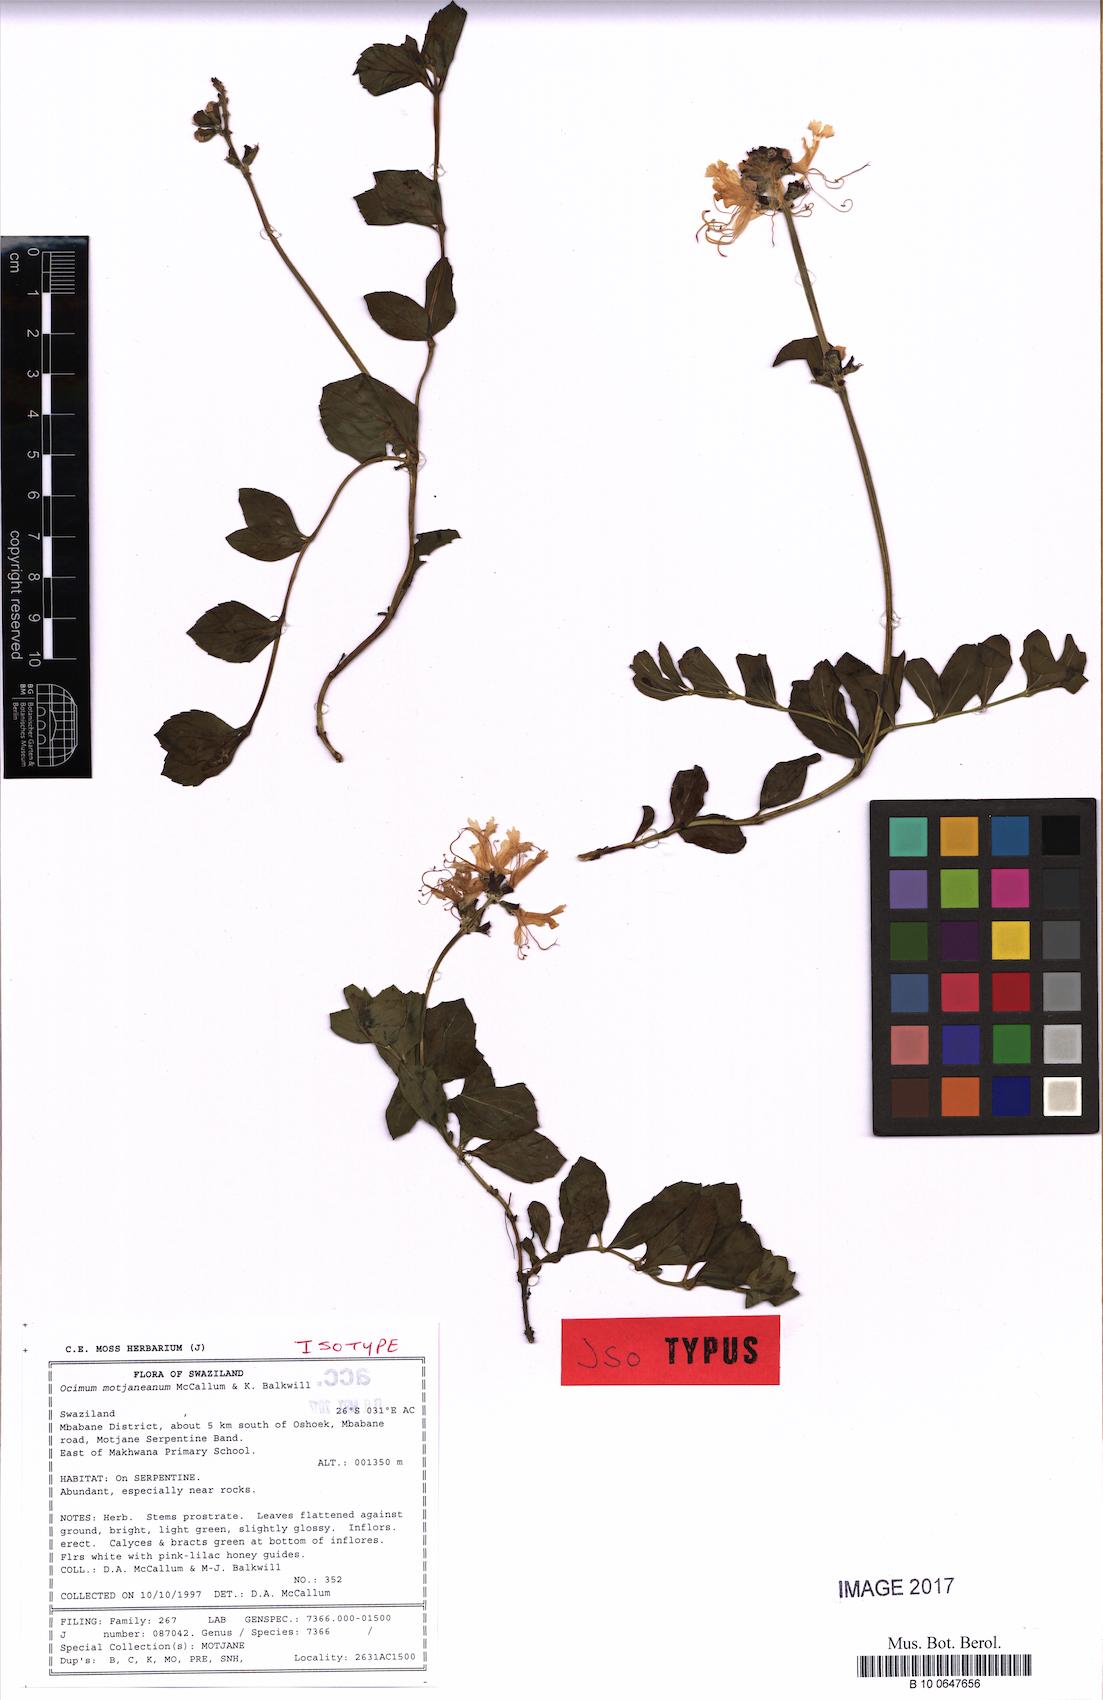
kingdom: Plantae
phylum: Tracheophyta
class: Magnoliopsida
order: Lamiales
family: Lamiaceae
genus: Ocimum
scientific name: Ocimum motjaneanum
